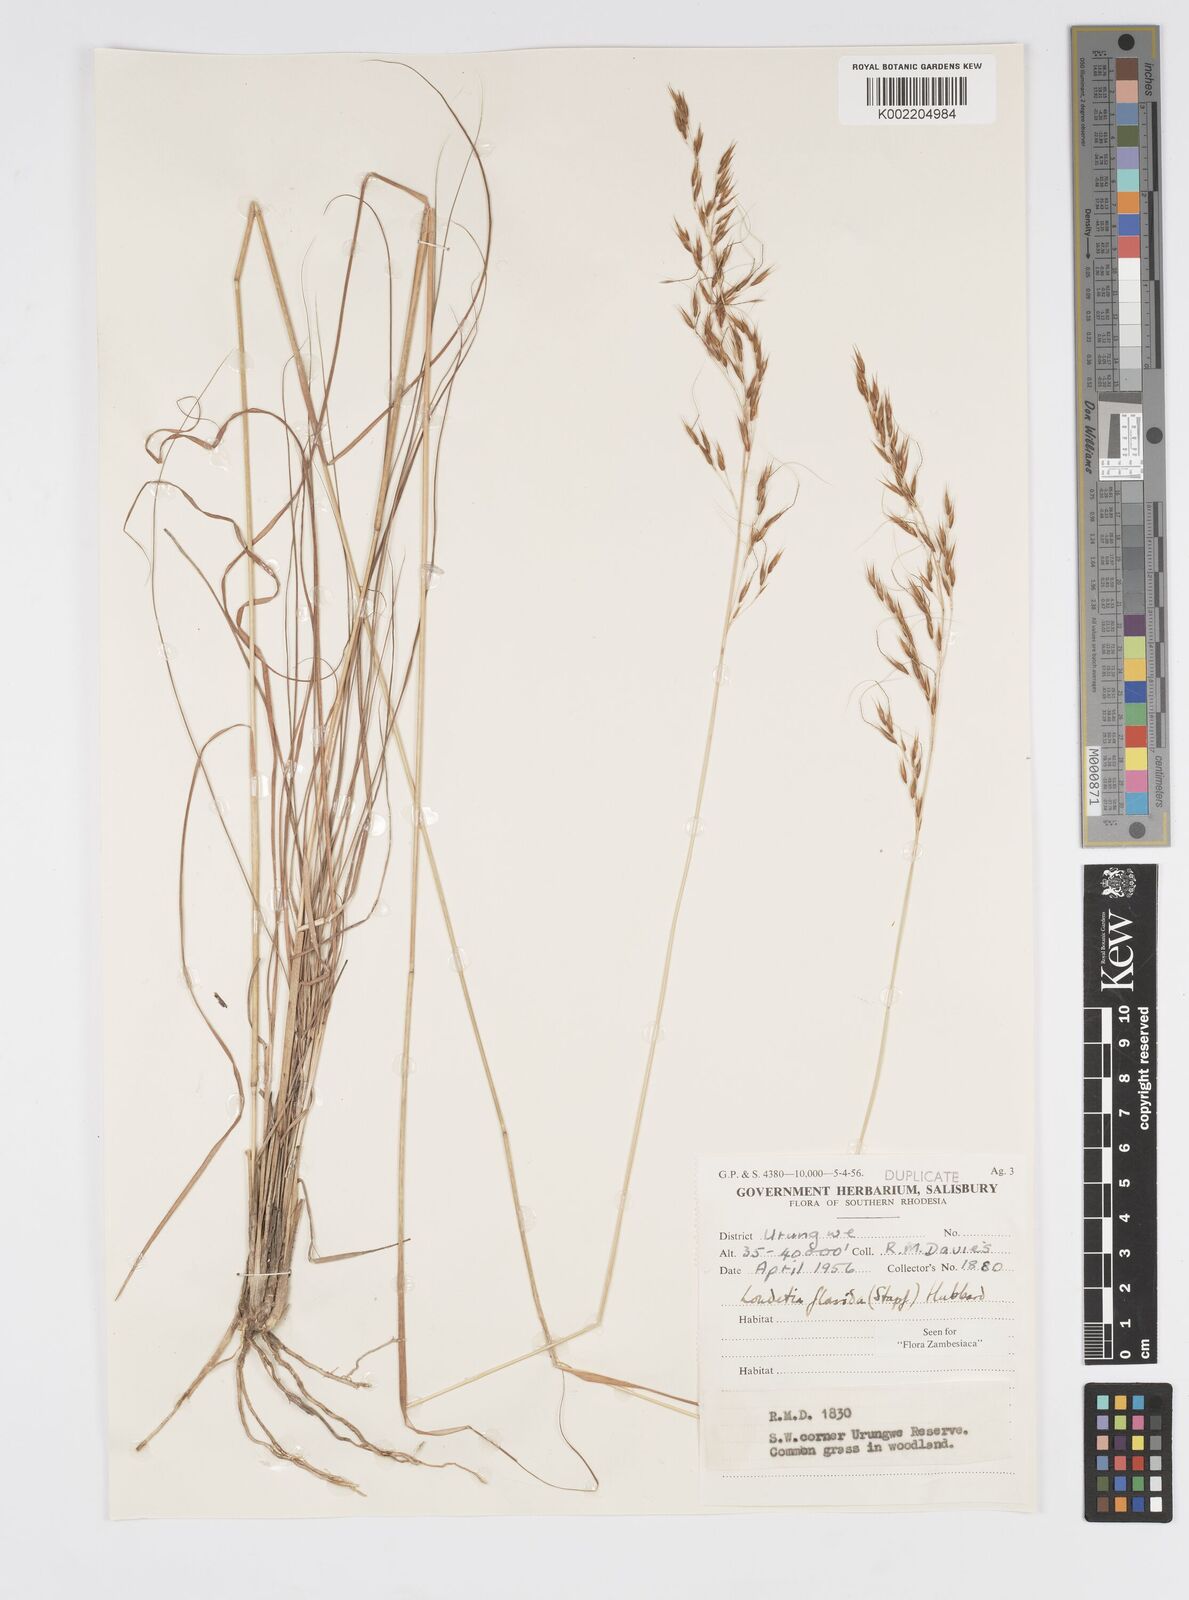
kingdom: Plantae
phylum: Tracheophyta
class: Liliopsida
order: Poales
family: Poaceae
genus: Loudetia
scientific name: Loudetia flavida
